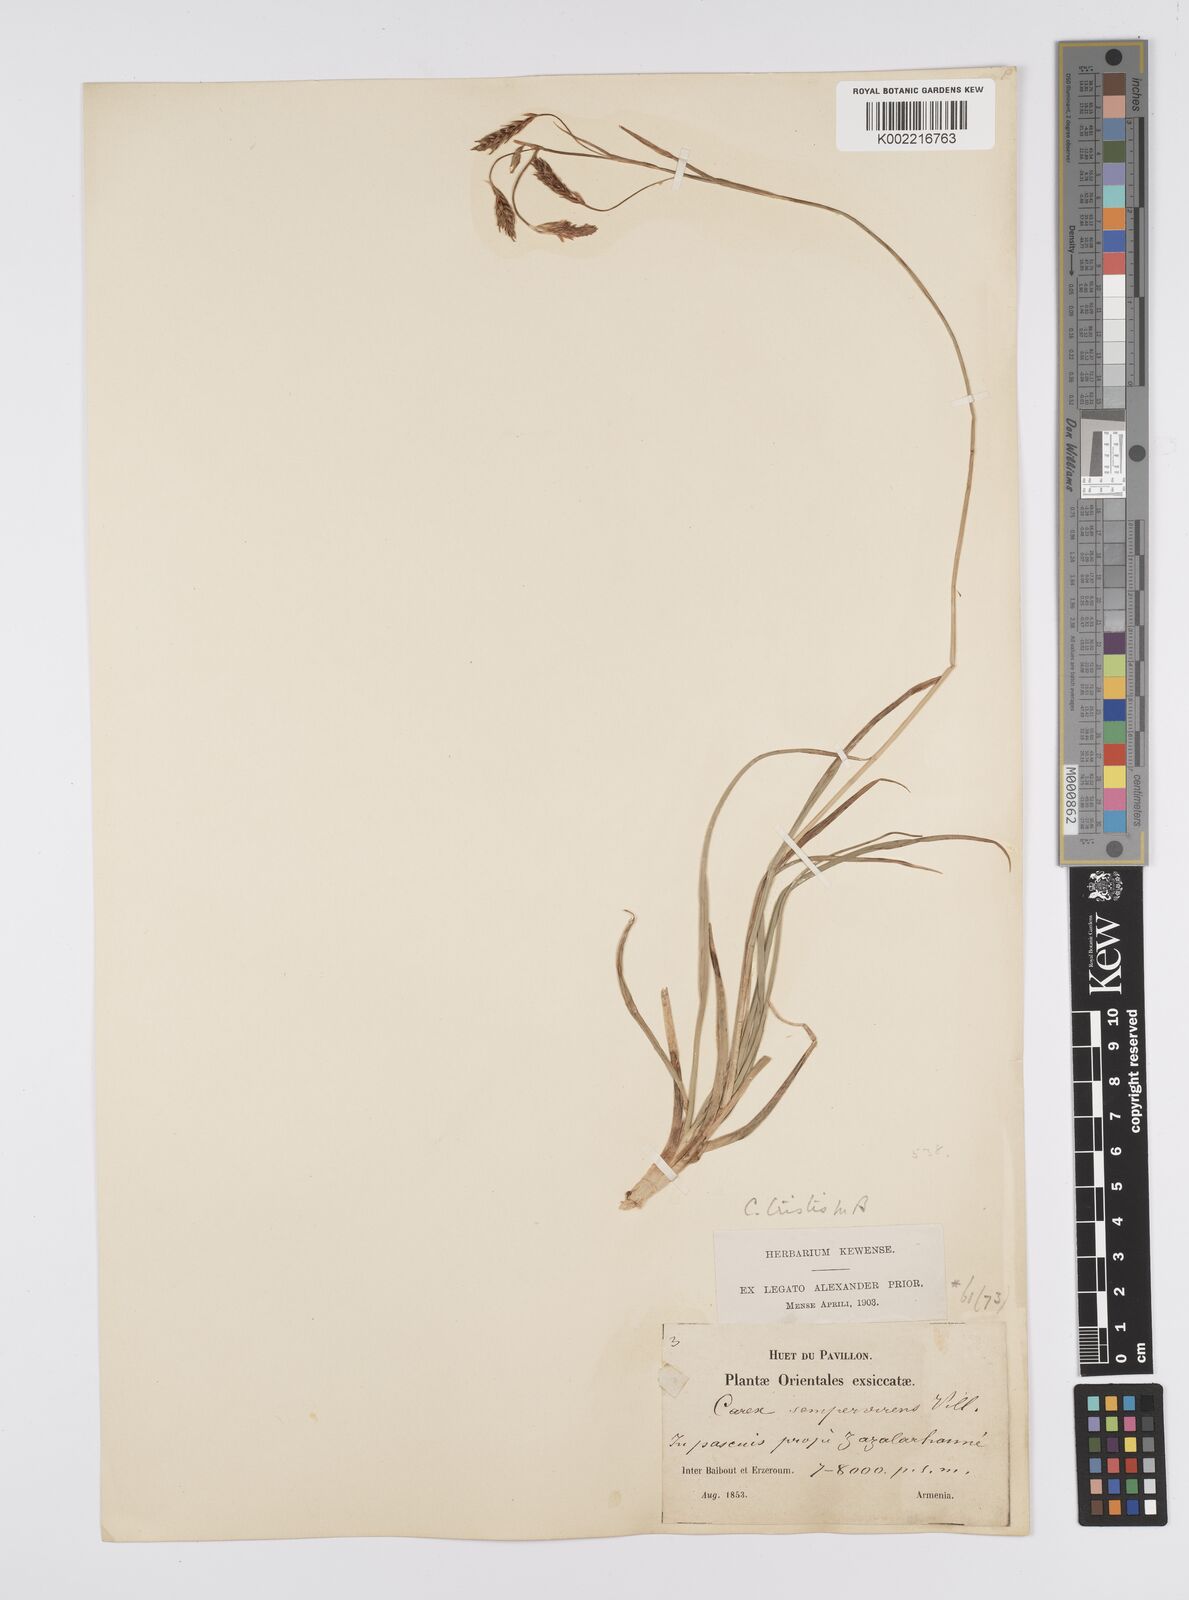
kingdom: Plantae
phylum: Tracheophyta
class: Liliopsida
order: Poales
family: Cyperaceae
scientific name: Cyperaceae
